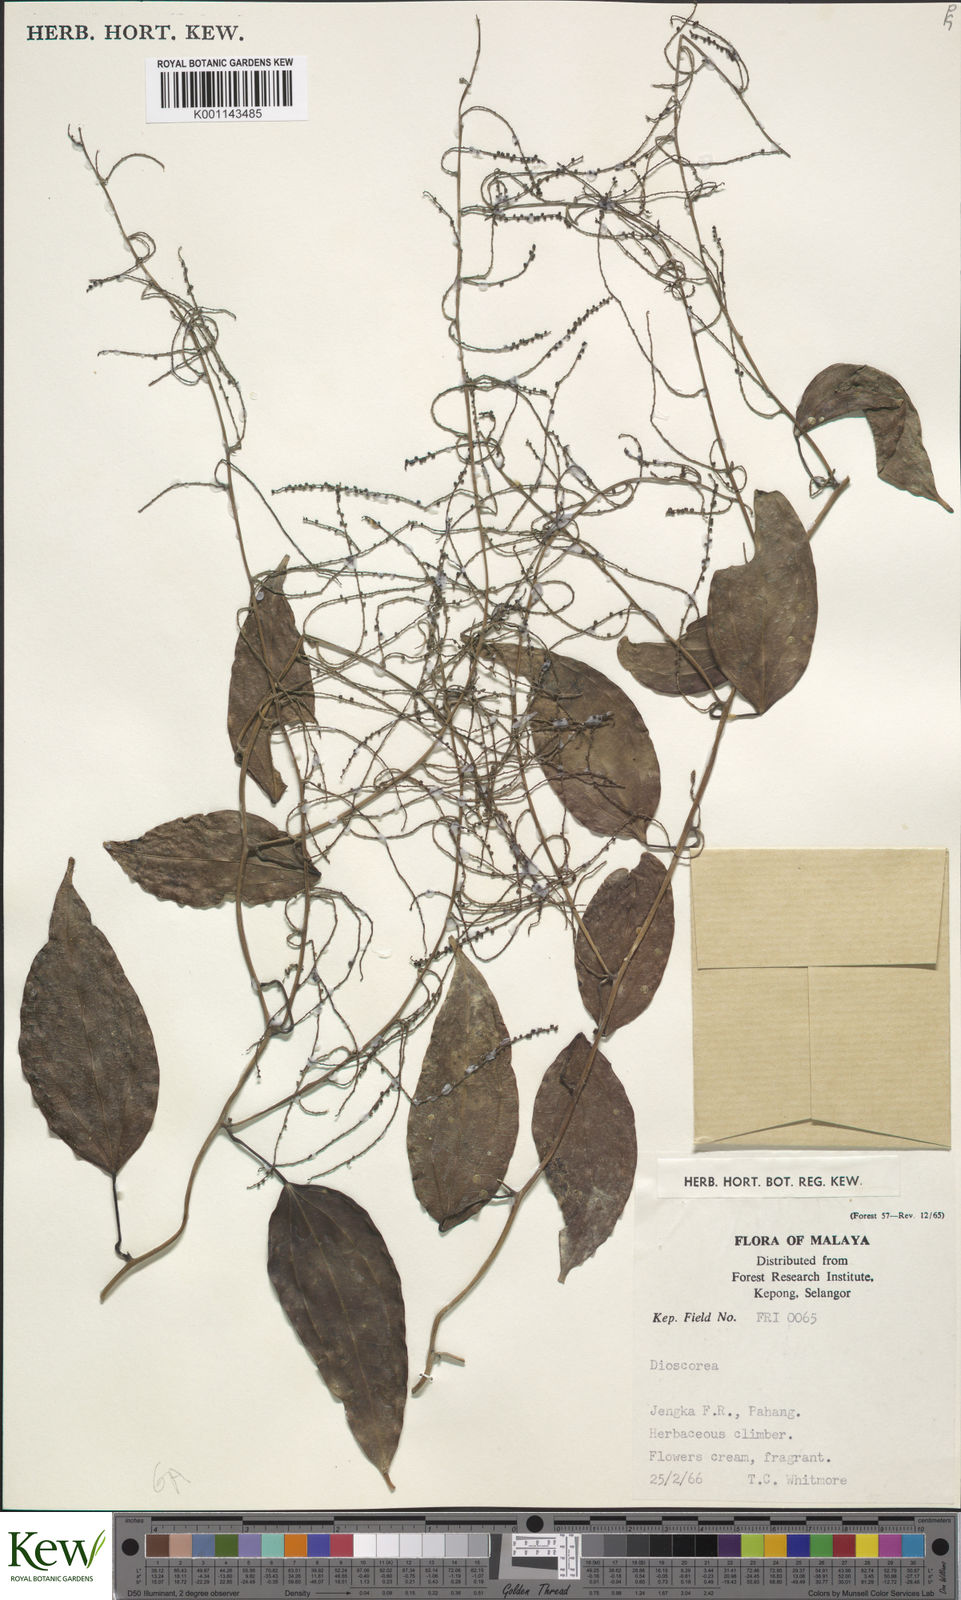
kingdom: Plantae
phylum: Tracheophyta
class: Liliopsida
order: Dioscoreales
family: Dioscoreaceae
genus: Dioscorea
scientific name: Dioscorea
